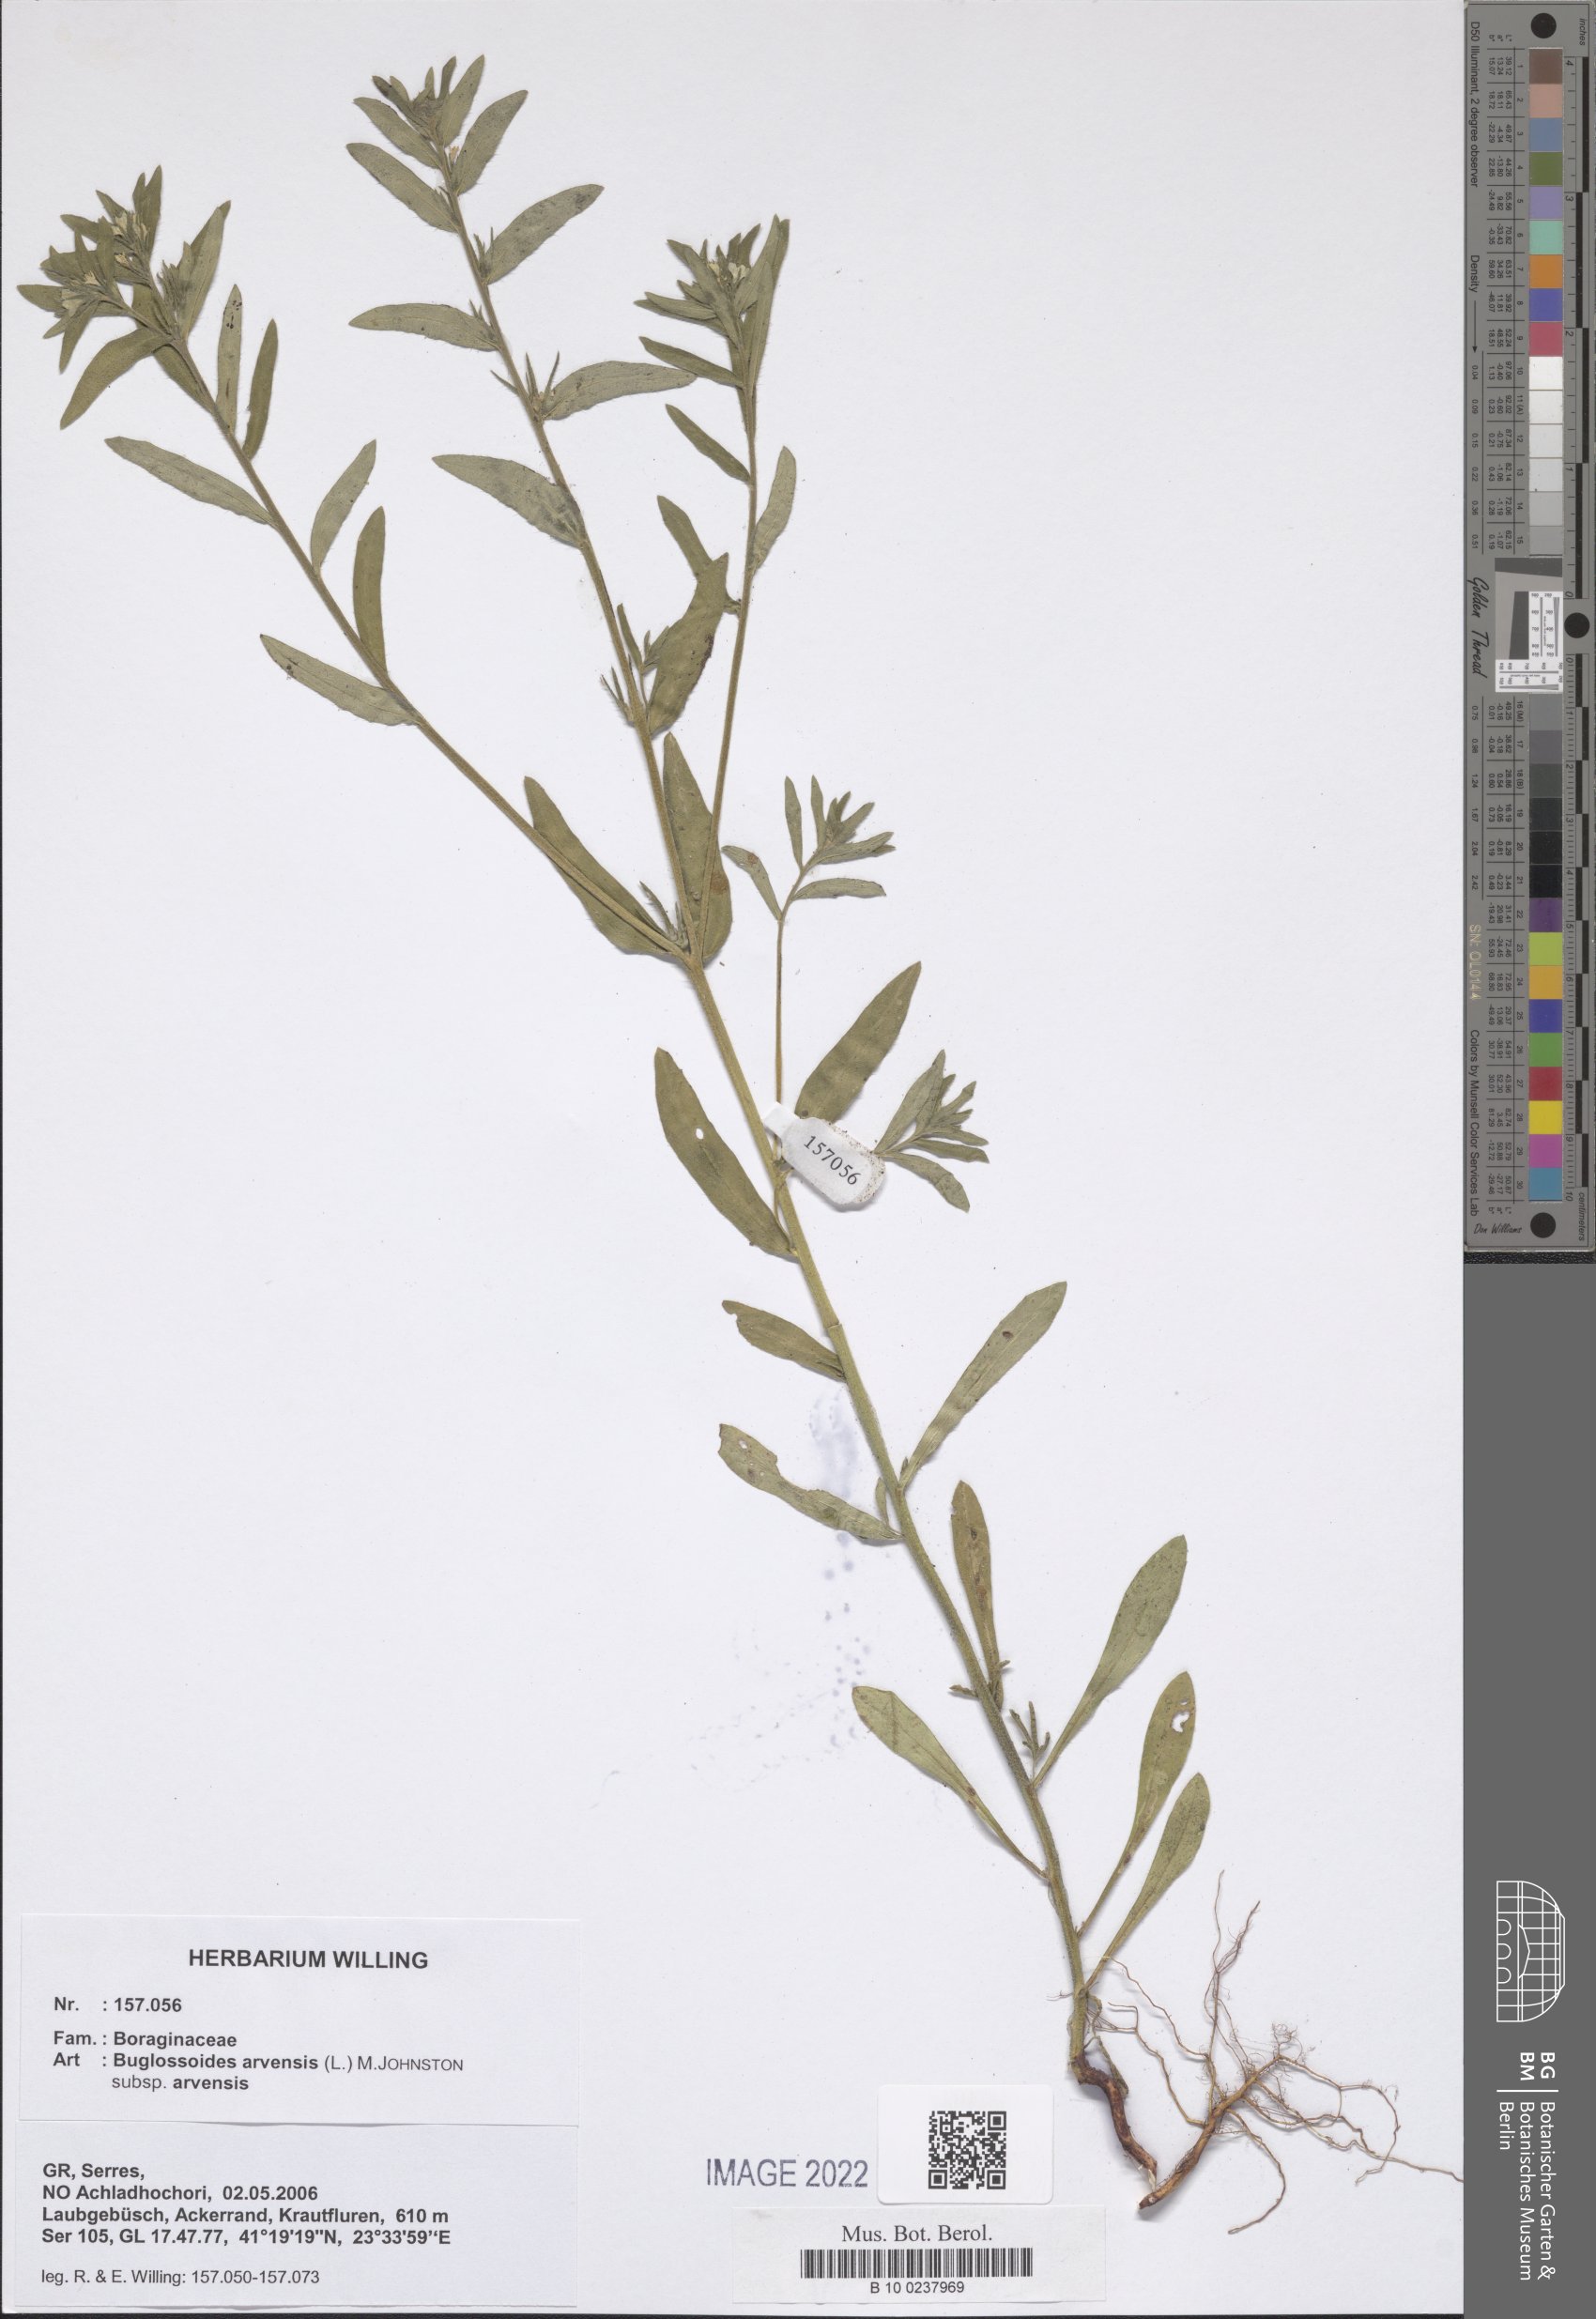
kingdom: Plantae
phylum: Tracheophyta
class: Magnoliopsida
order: Boraginales
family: Boraginaceae
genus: Buglossoides
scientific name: Buglossoides arvensis
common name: Corn gromwell
